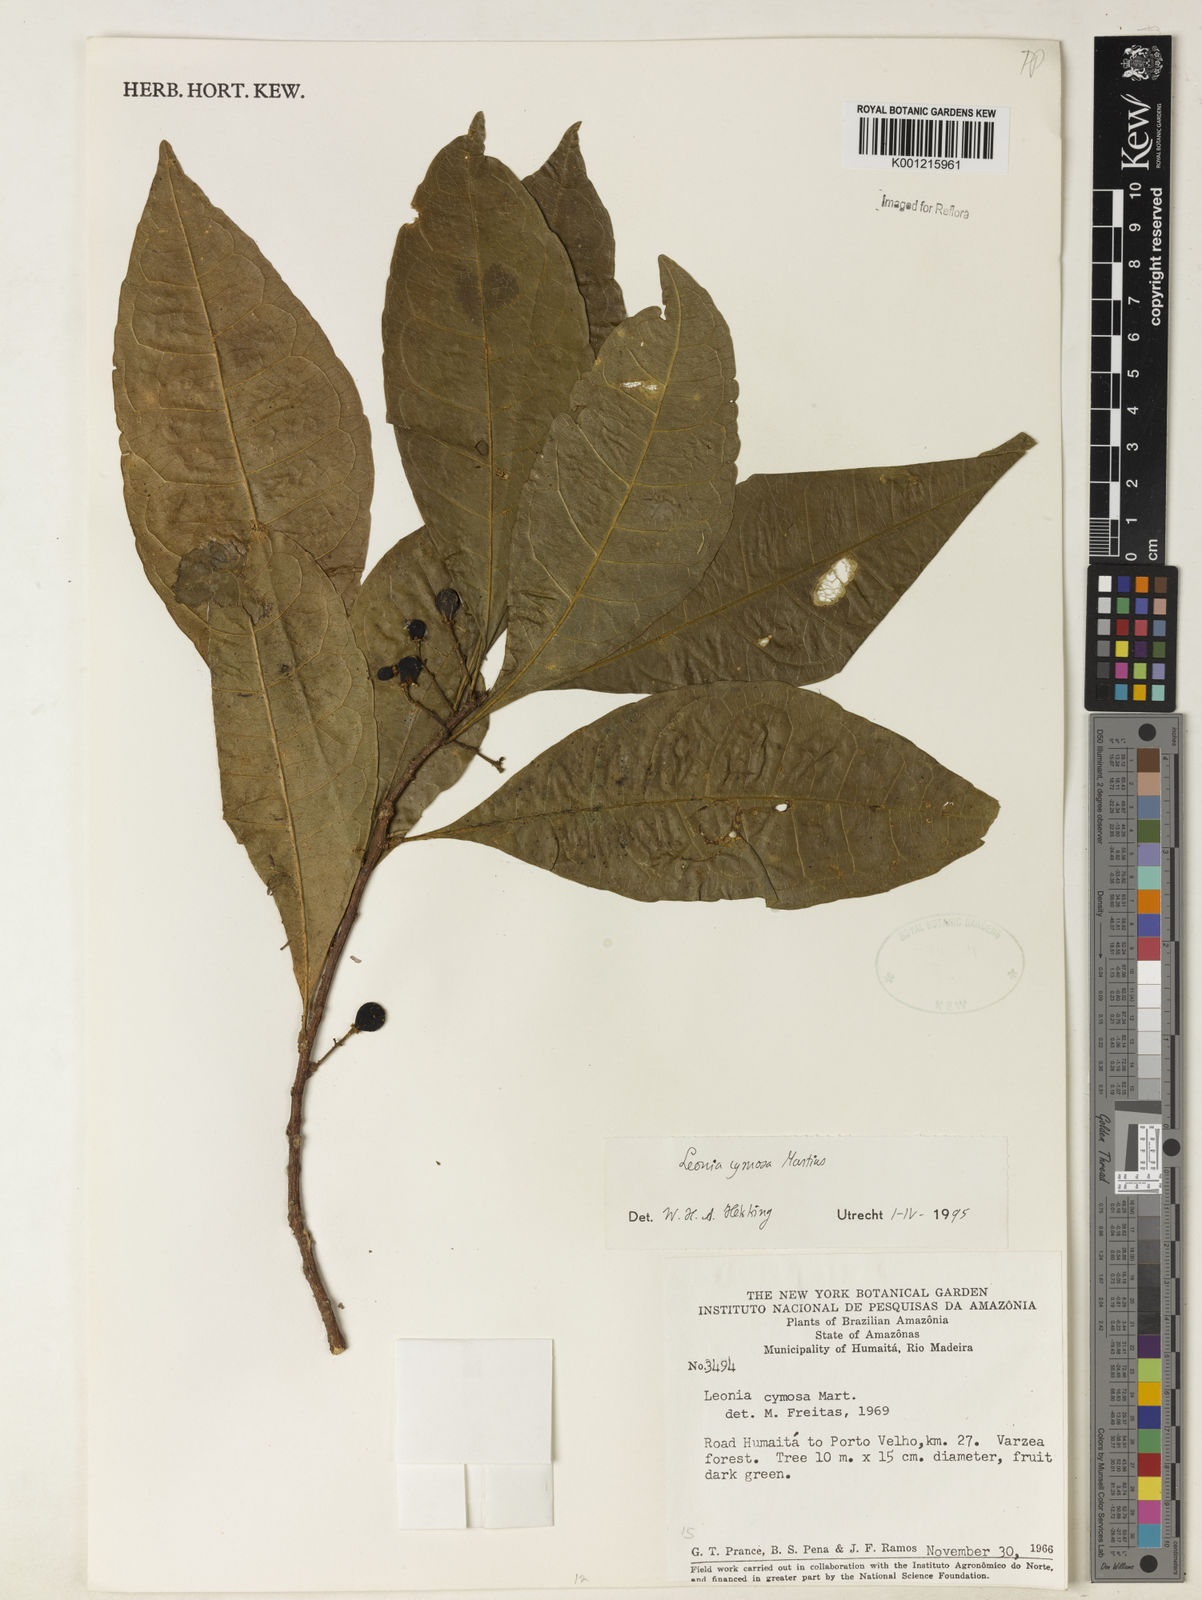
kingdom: Plantae
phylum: Tracheophyta
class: Magnoliopsida
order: Malpighiales
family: Violaceae
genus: Leonia
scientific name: Leonia cymosa
